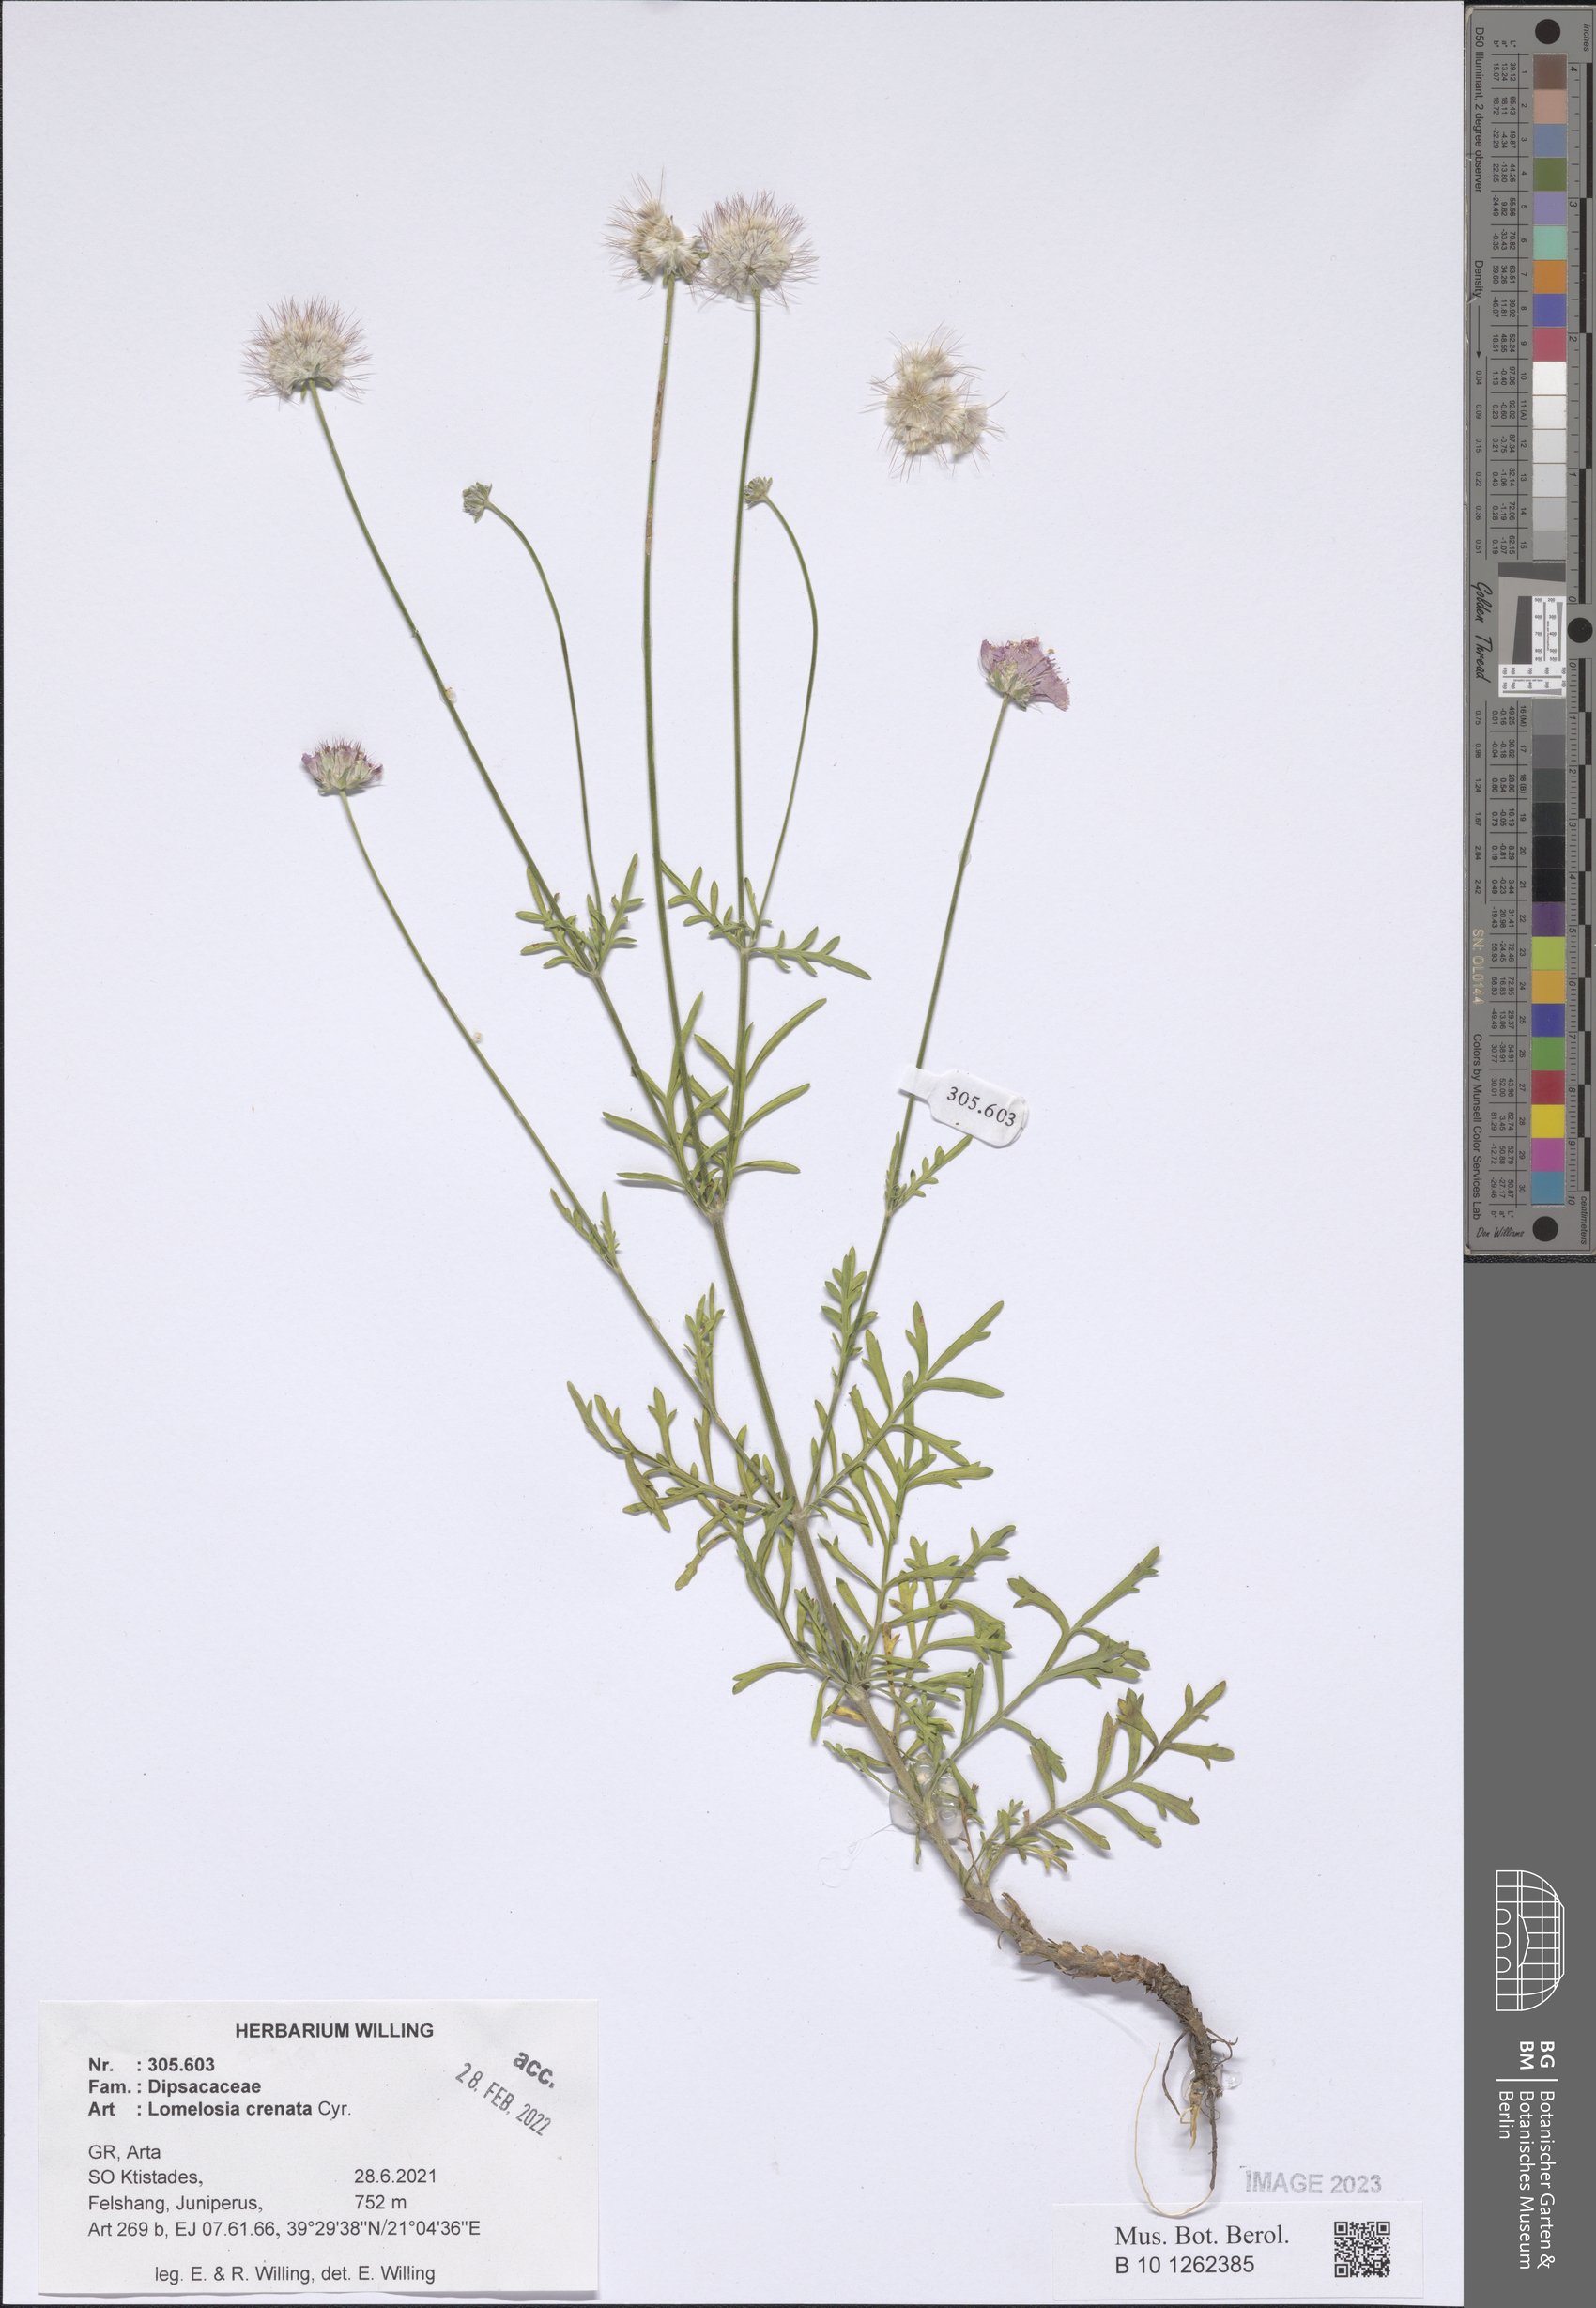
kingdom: Plantae
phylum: Tracheophyta
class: Magnoliopsida
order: Dipsacales
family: Caprifoliaceae
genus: Lomelosia
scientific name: Lomelosia crenata
